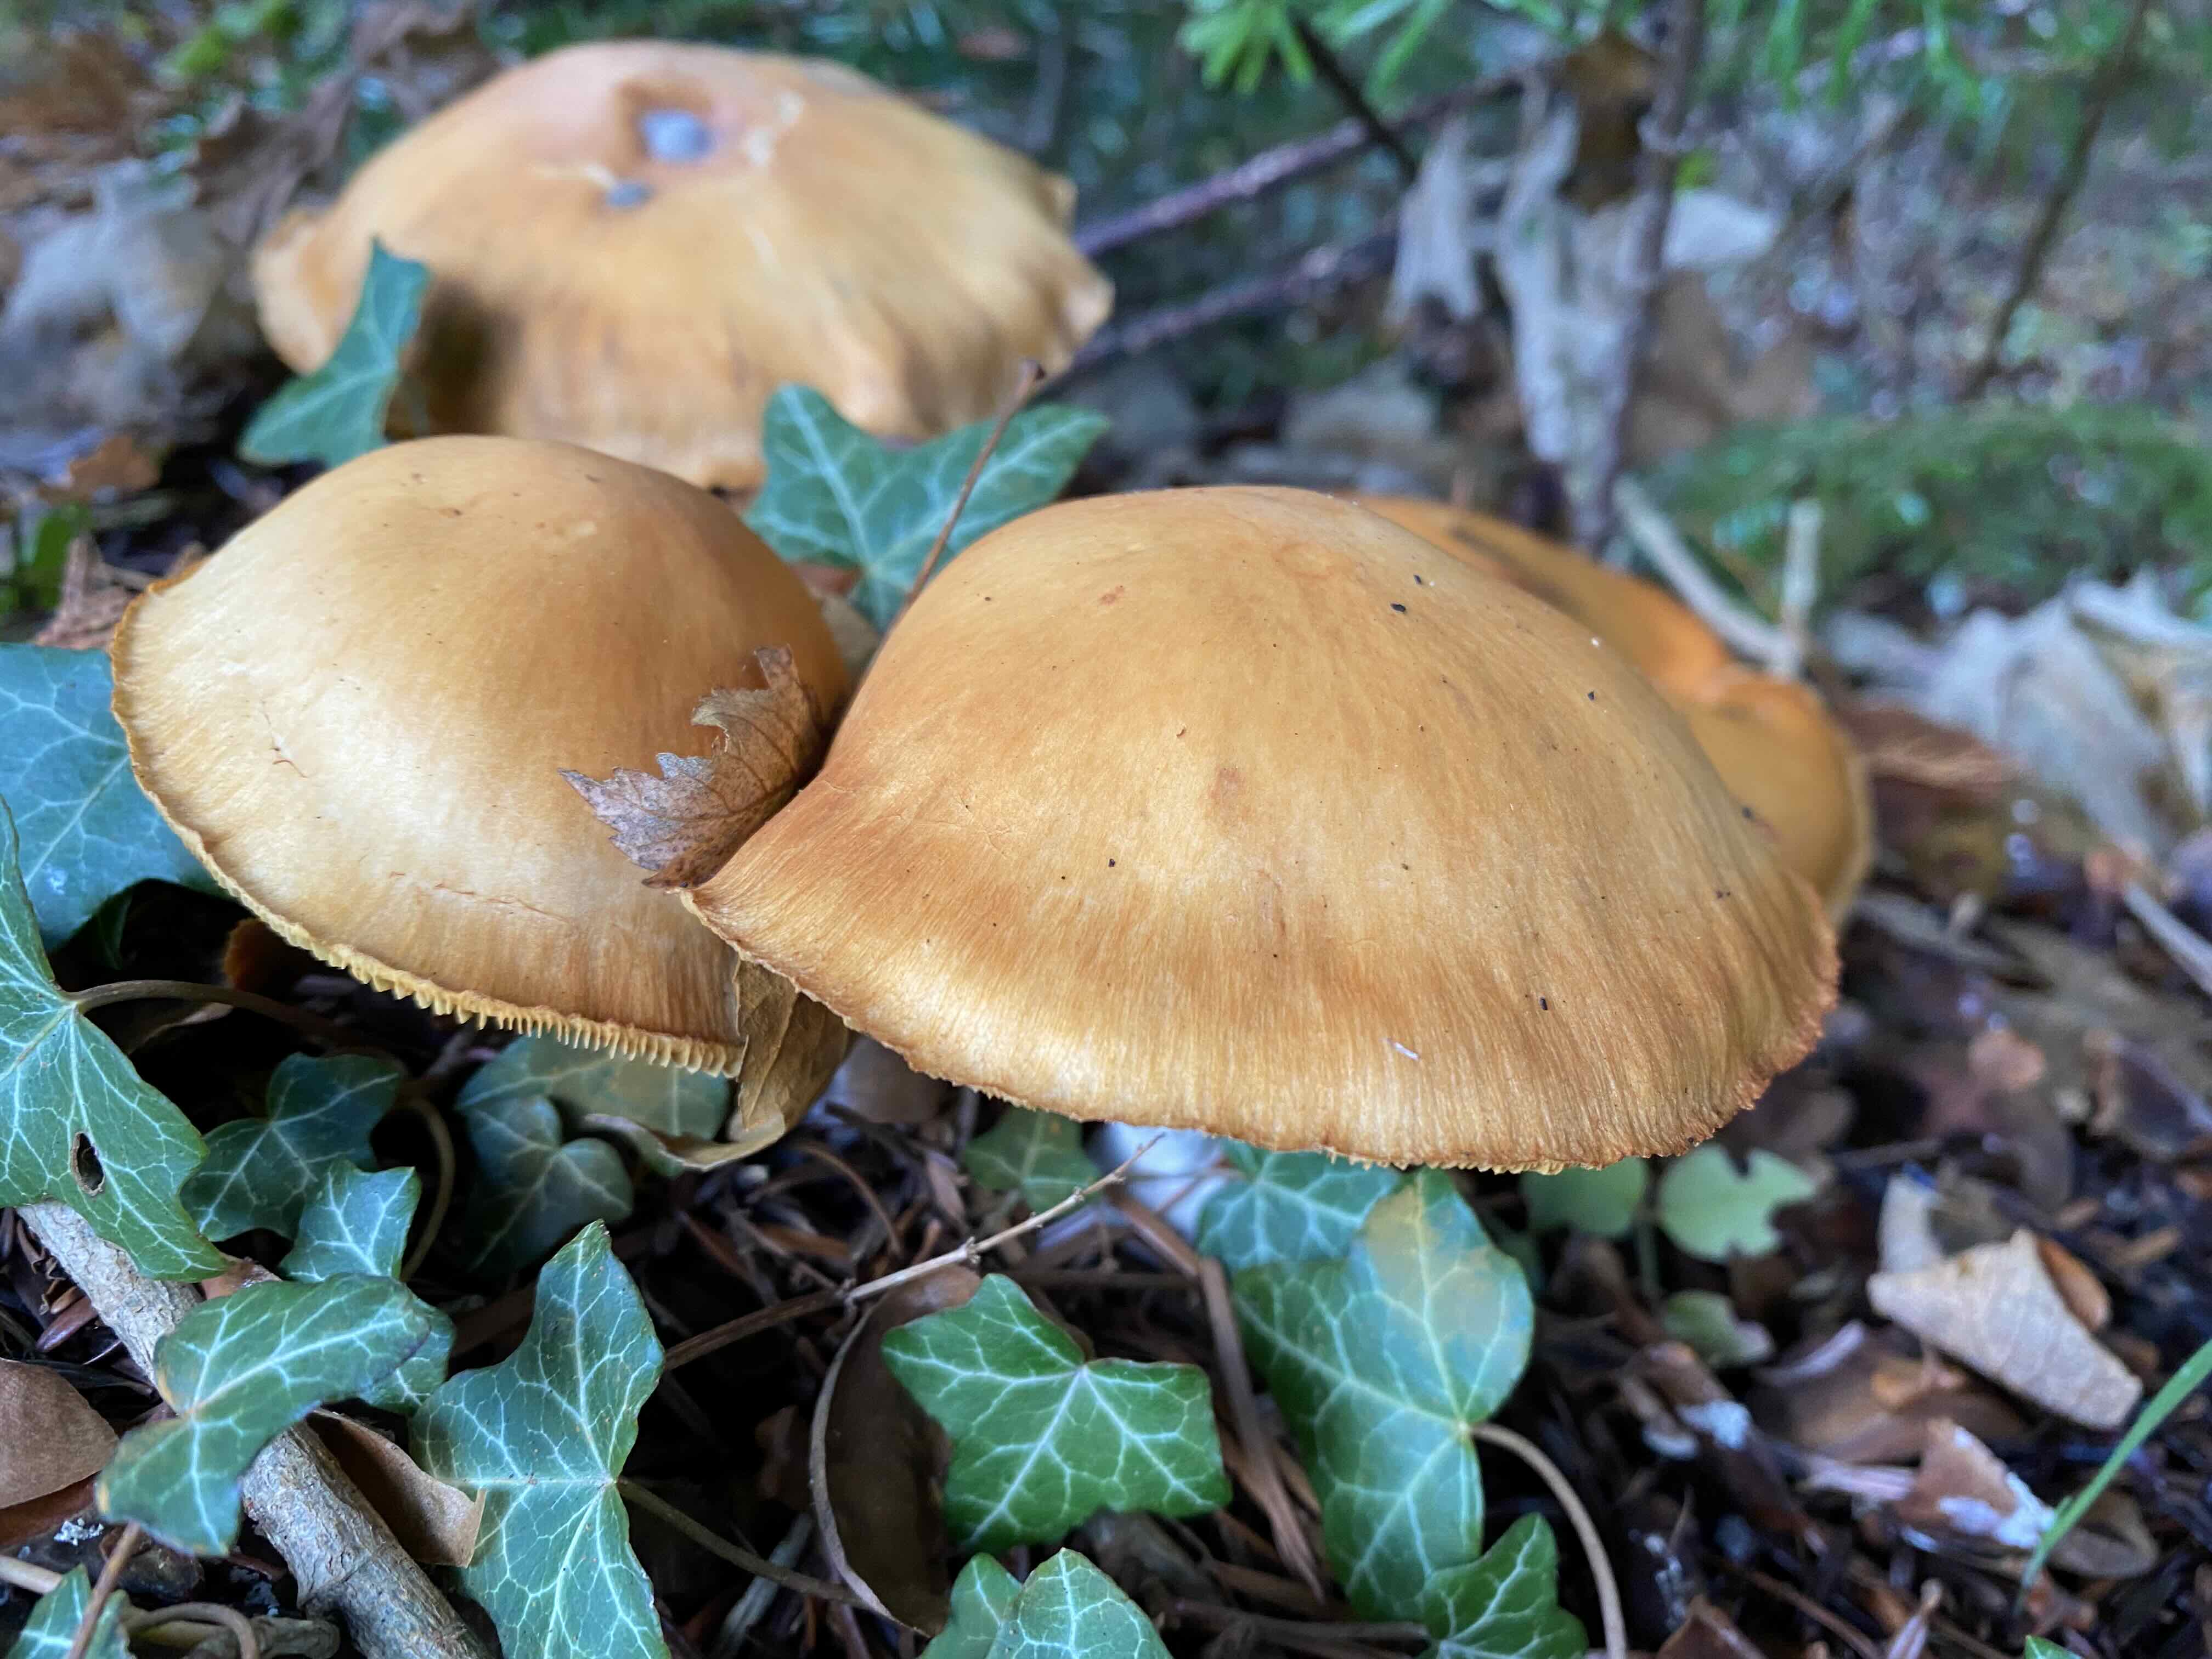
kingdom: Fungi
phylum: Basidiomycota
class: Agaricomycetes
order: Agaricales
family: Hymenogastraceae
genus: Galerina
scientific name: Galerina
